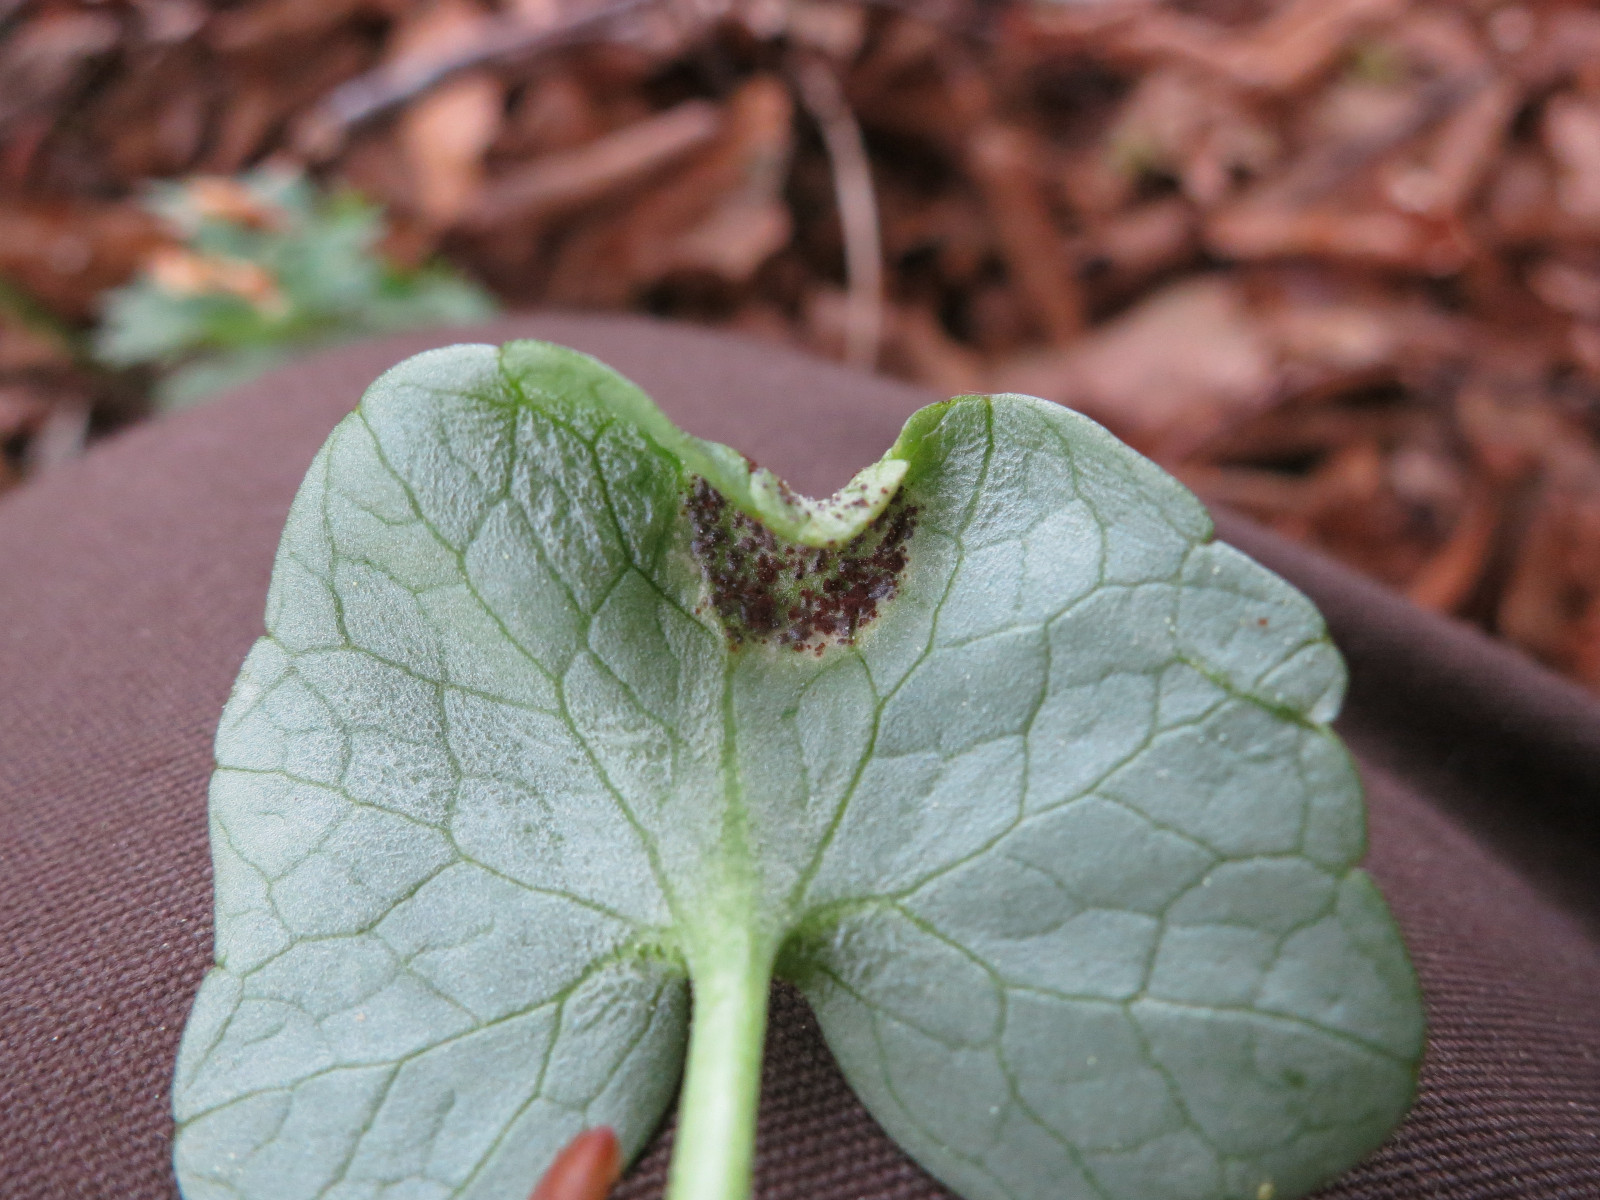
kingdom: Fungi
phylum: Basidiomycota
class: Pucciniomycetes
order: Pucciniales
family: Pucciniaceae
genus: Uromyces
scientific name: Uromyces ficariae
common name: vorterod-encellerust
